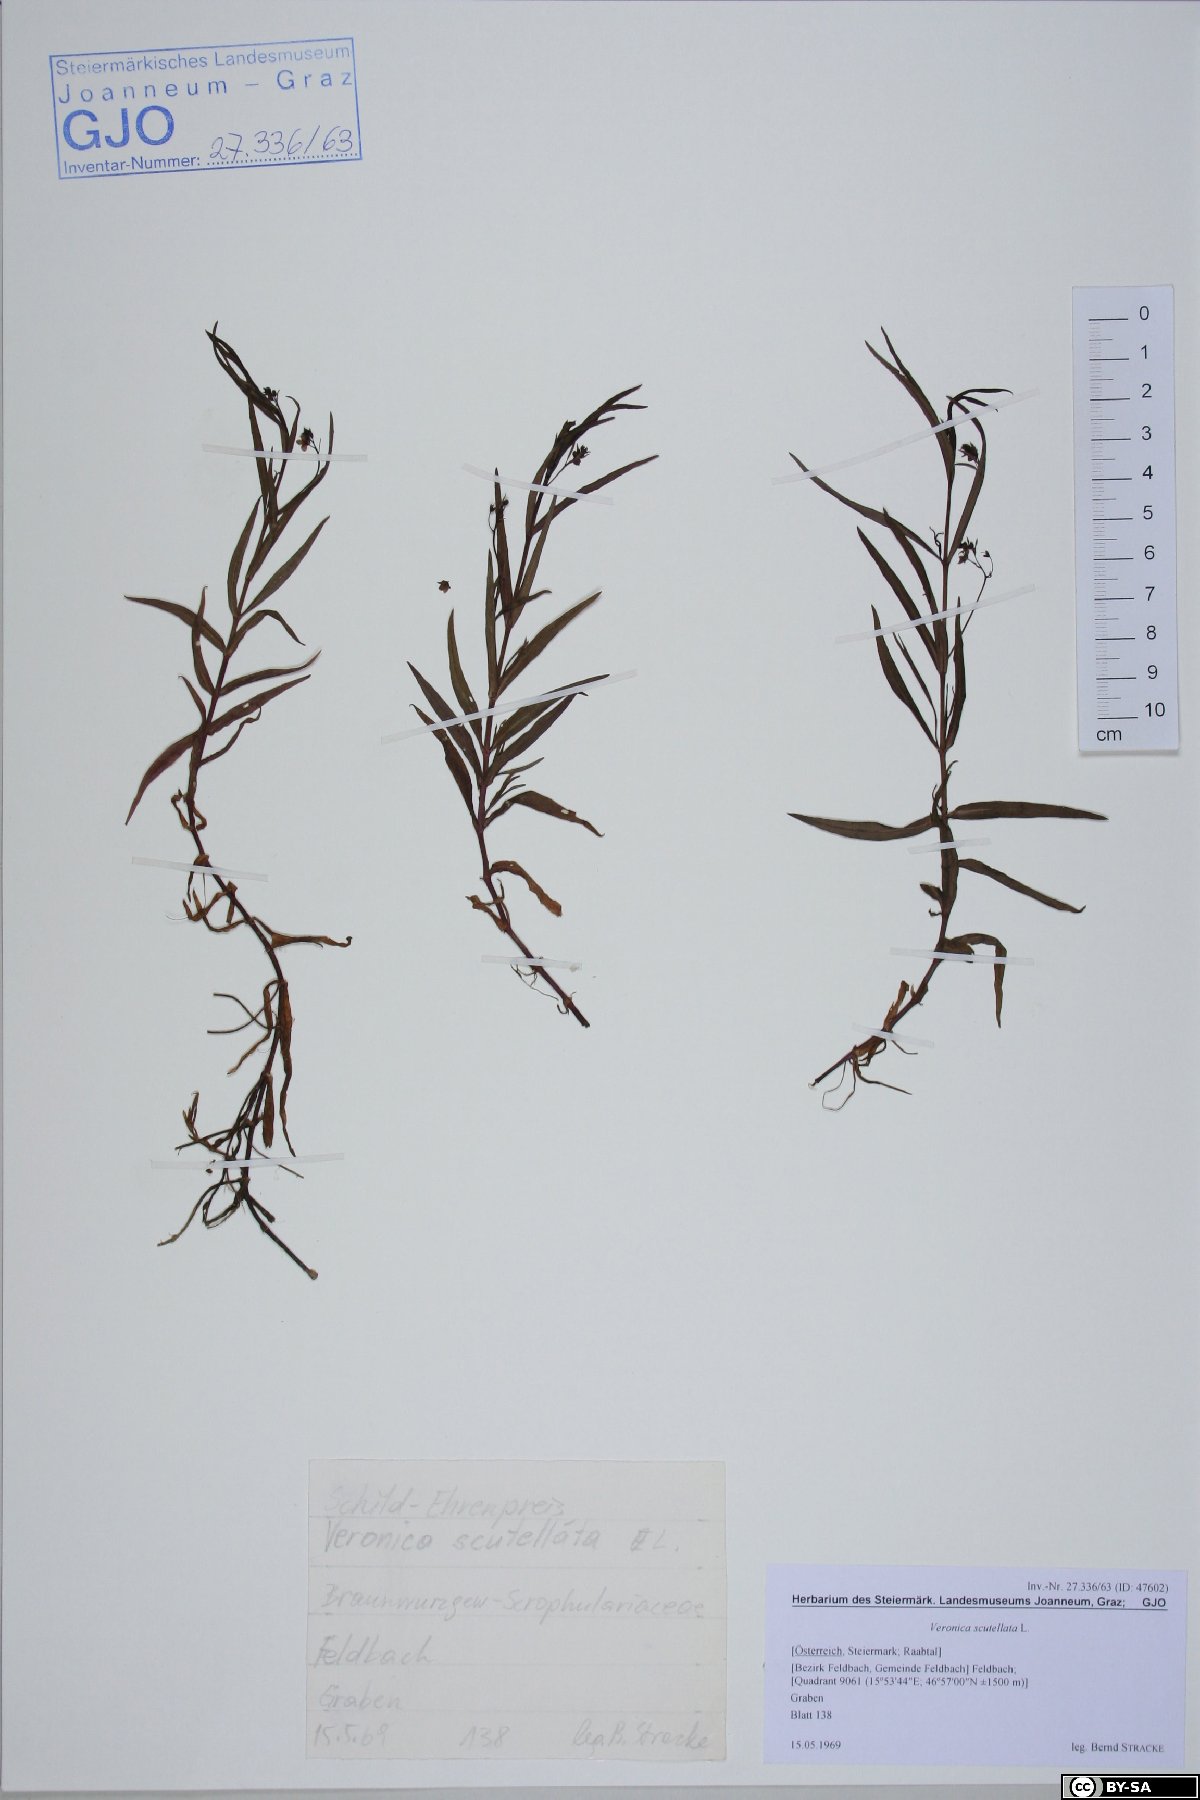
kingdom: Plantae
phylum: Tracheophyta
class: Magnoliopsida
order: Lamiales
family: Plantaginaceae
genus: Veronica
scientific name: Veronica scutellata
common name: Marsh speedwell
